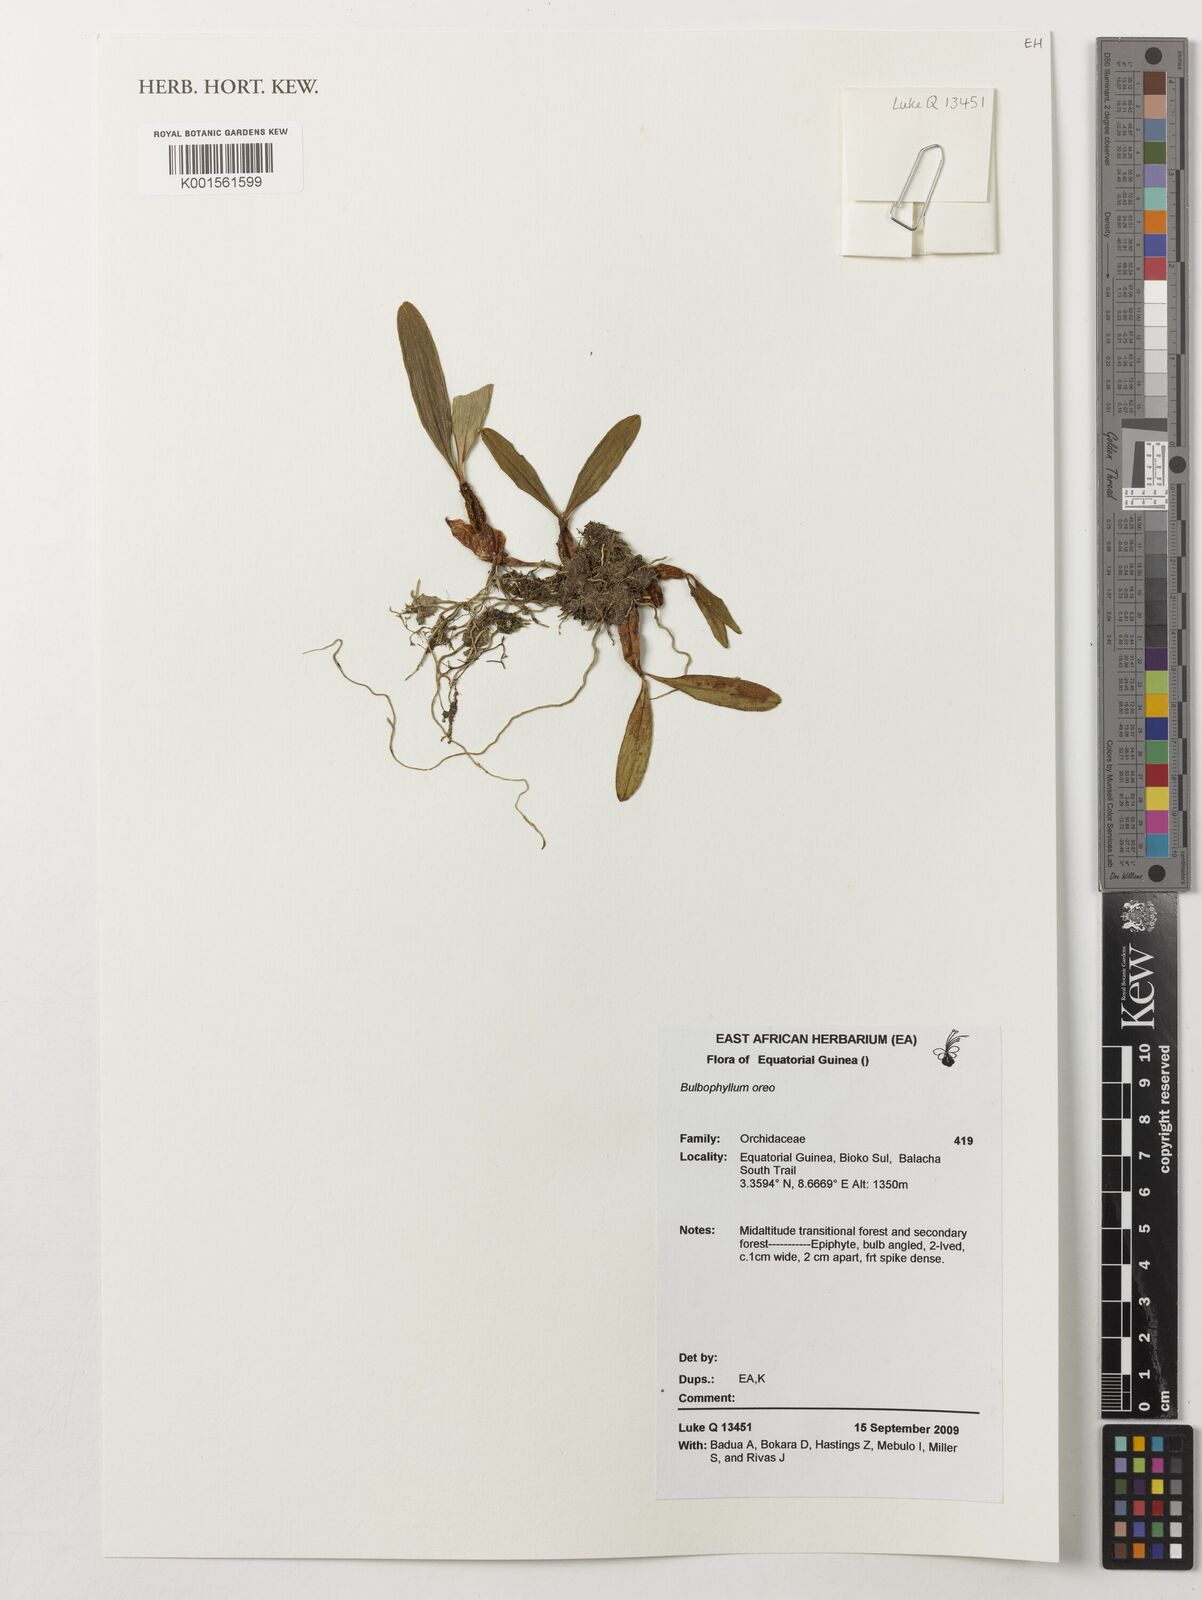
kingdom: Plantae
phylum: Tracheophyta
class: Liliopsida
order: Asparagales
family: Orchidaceae
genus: Bulbophyllum
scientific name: Bulbophyllum
